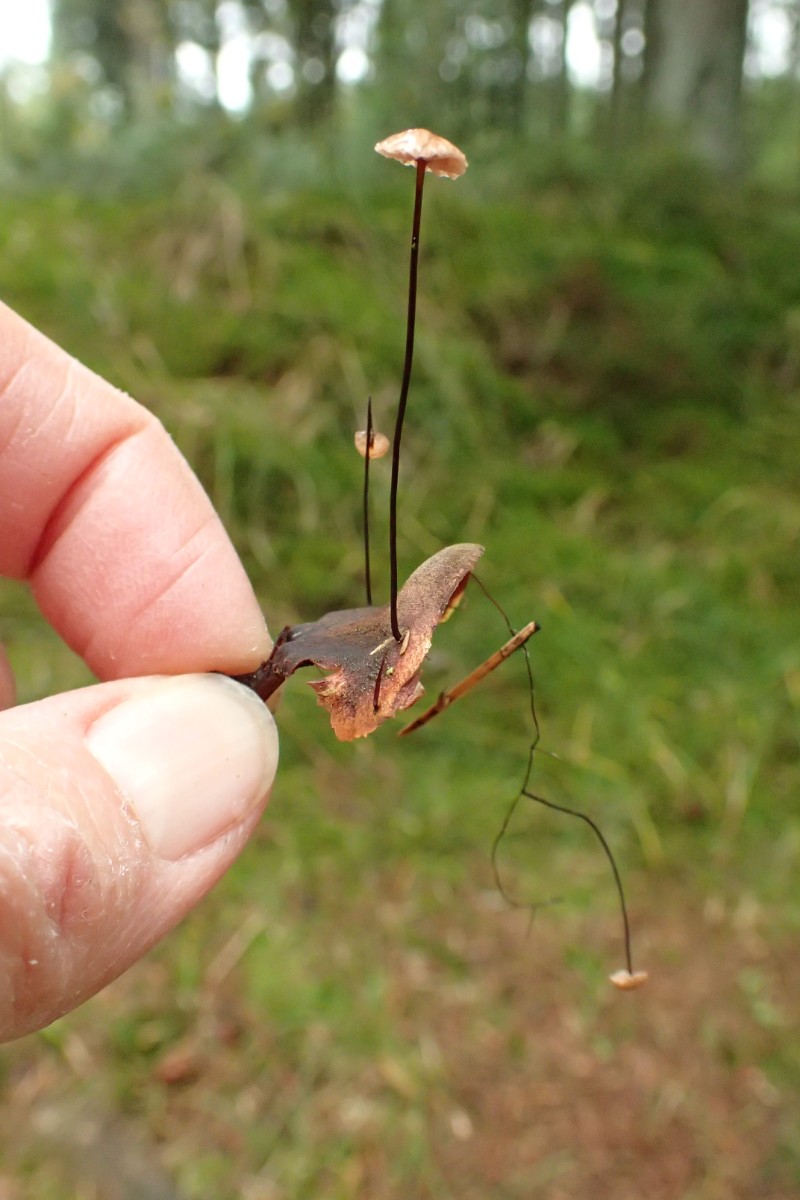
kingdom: Fungi
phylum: Basidiomycota
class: Agaricomycetes
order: Agaricales
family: Omphalotaceae
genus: Gymnopus
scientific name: Gymnopus androsaceus
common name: trådstokket fladhat
